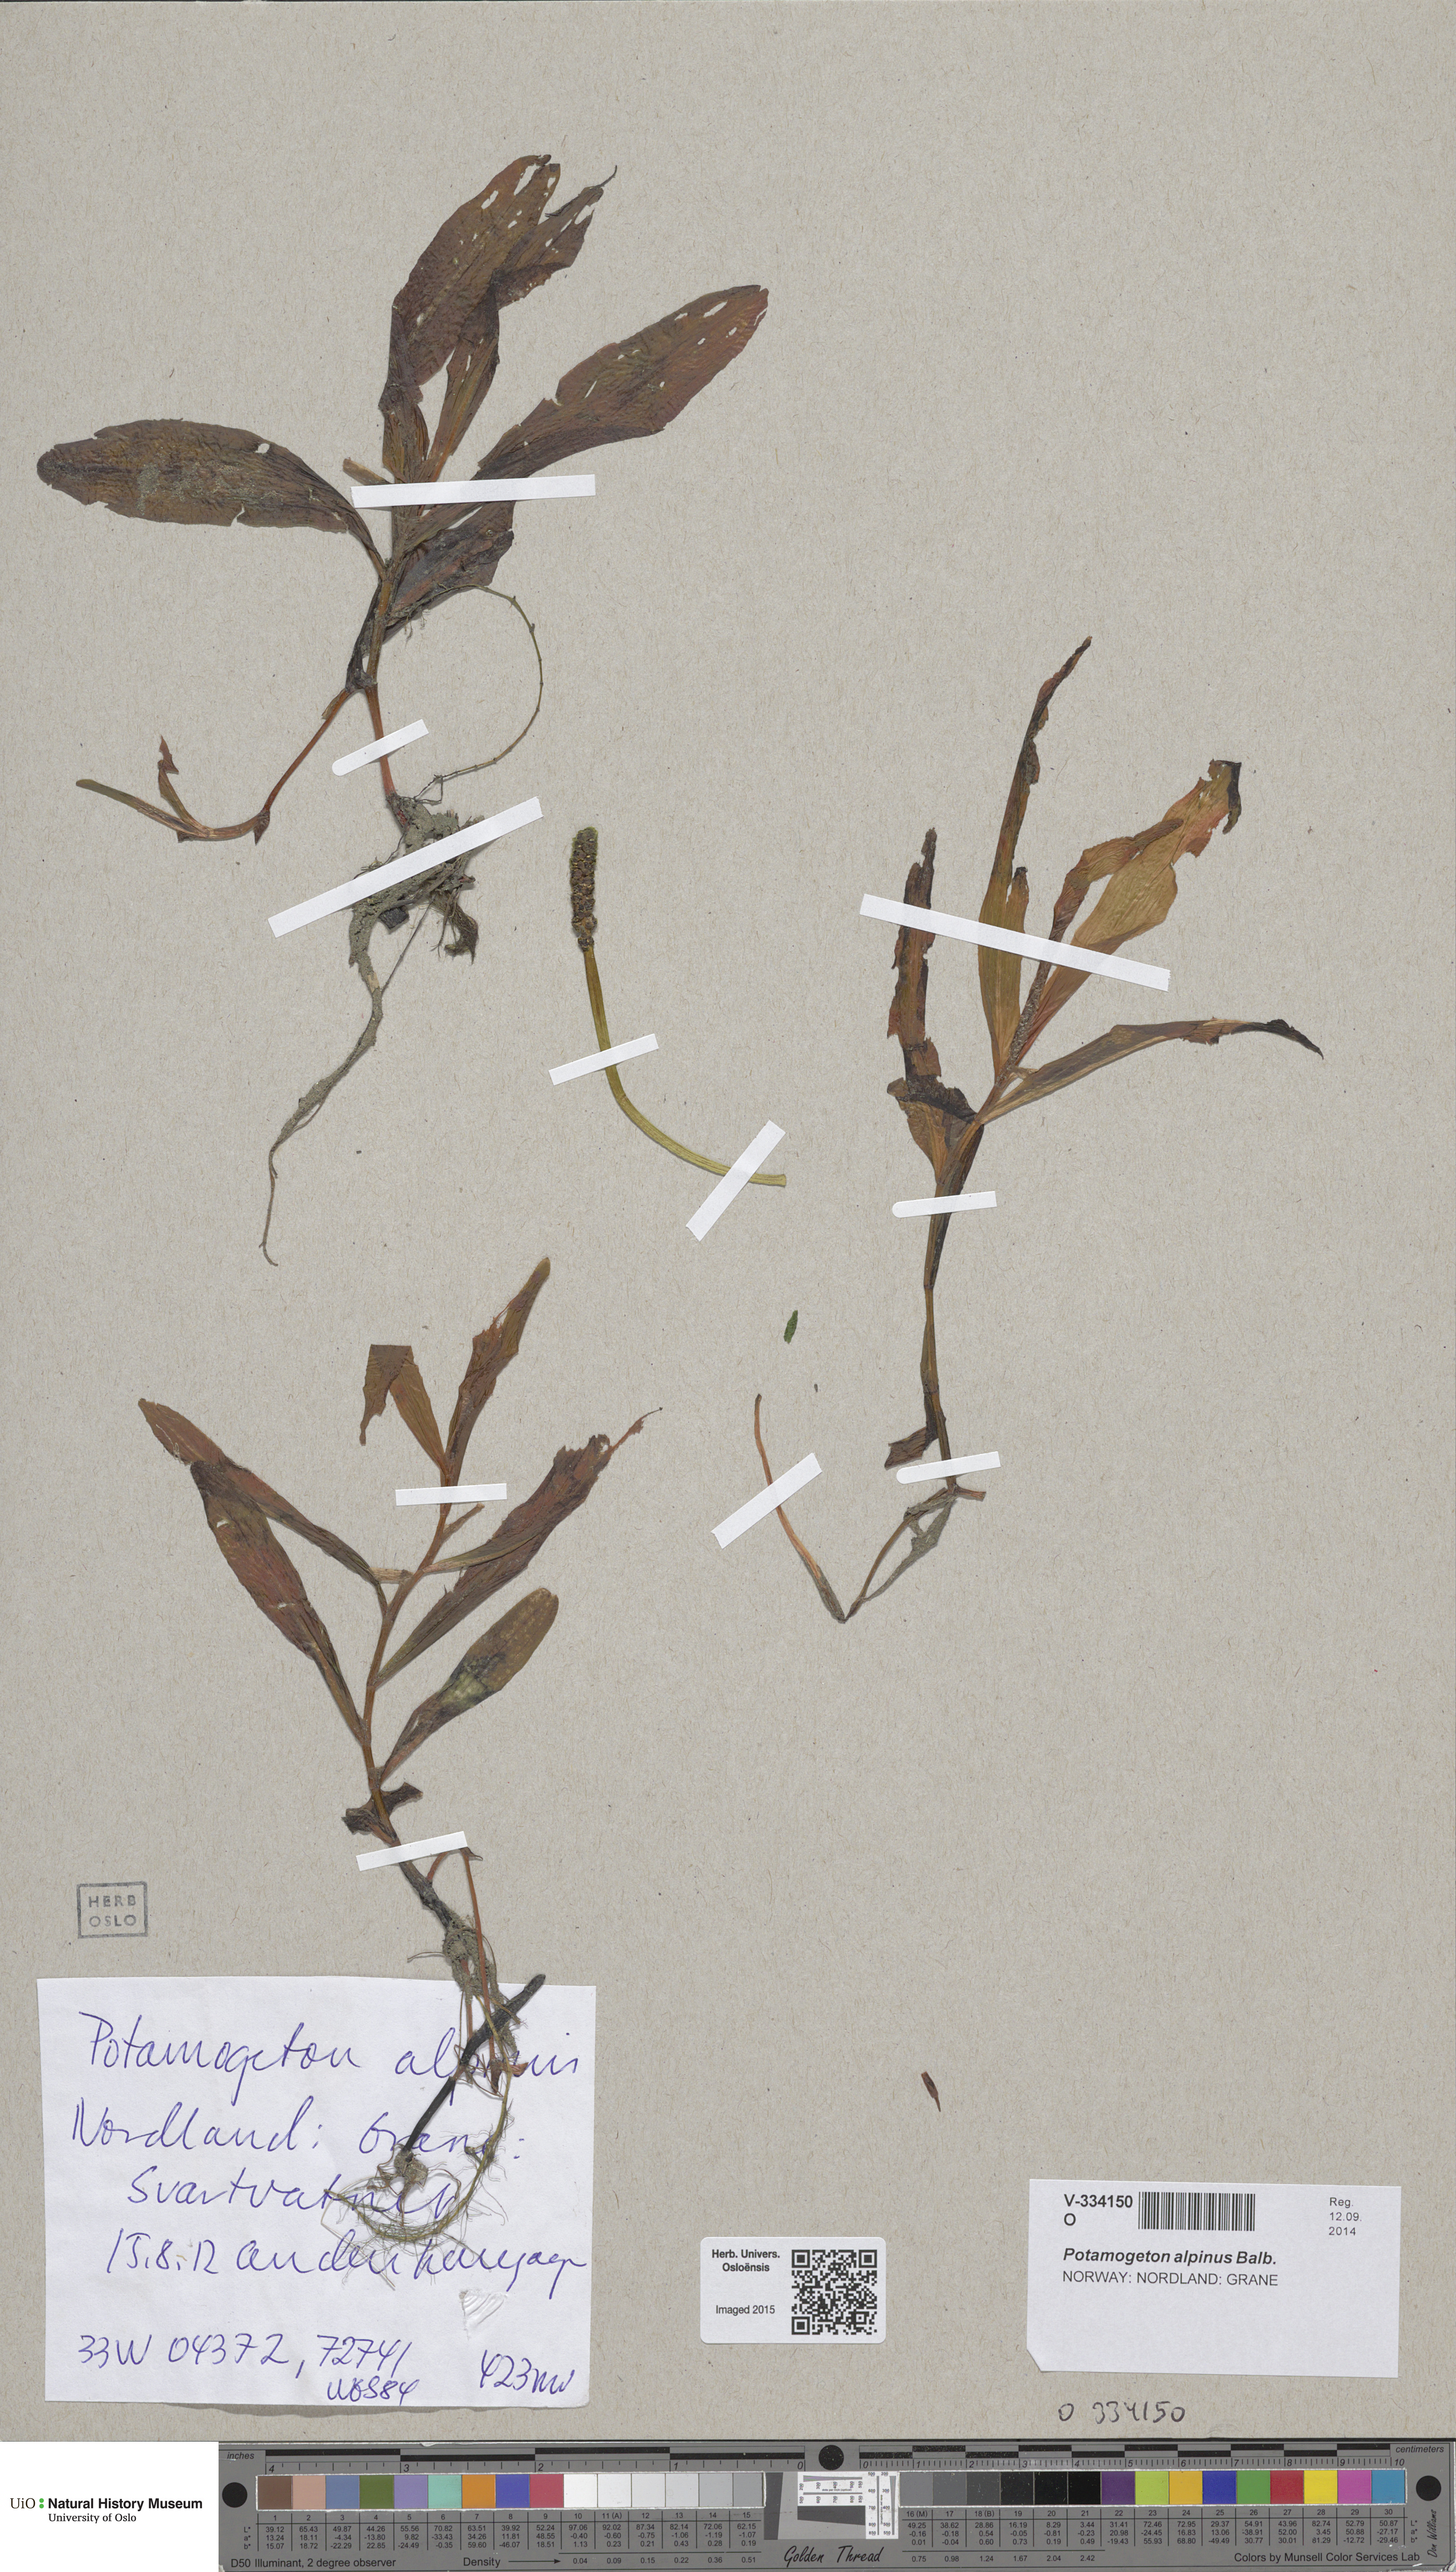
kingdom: Plantae
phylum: Tracheophyta
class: Liliopsida
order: Alismatales
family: Potamogetonaceae
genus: Potamogeton
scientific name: Potamogeton alpinus
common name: Red pondweed
